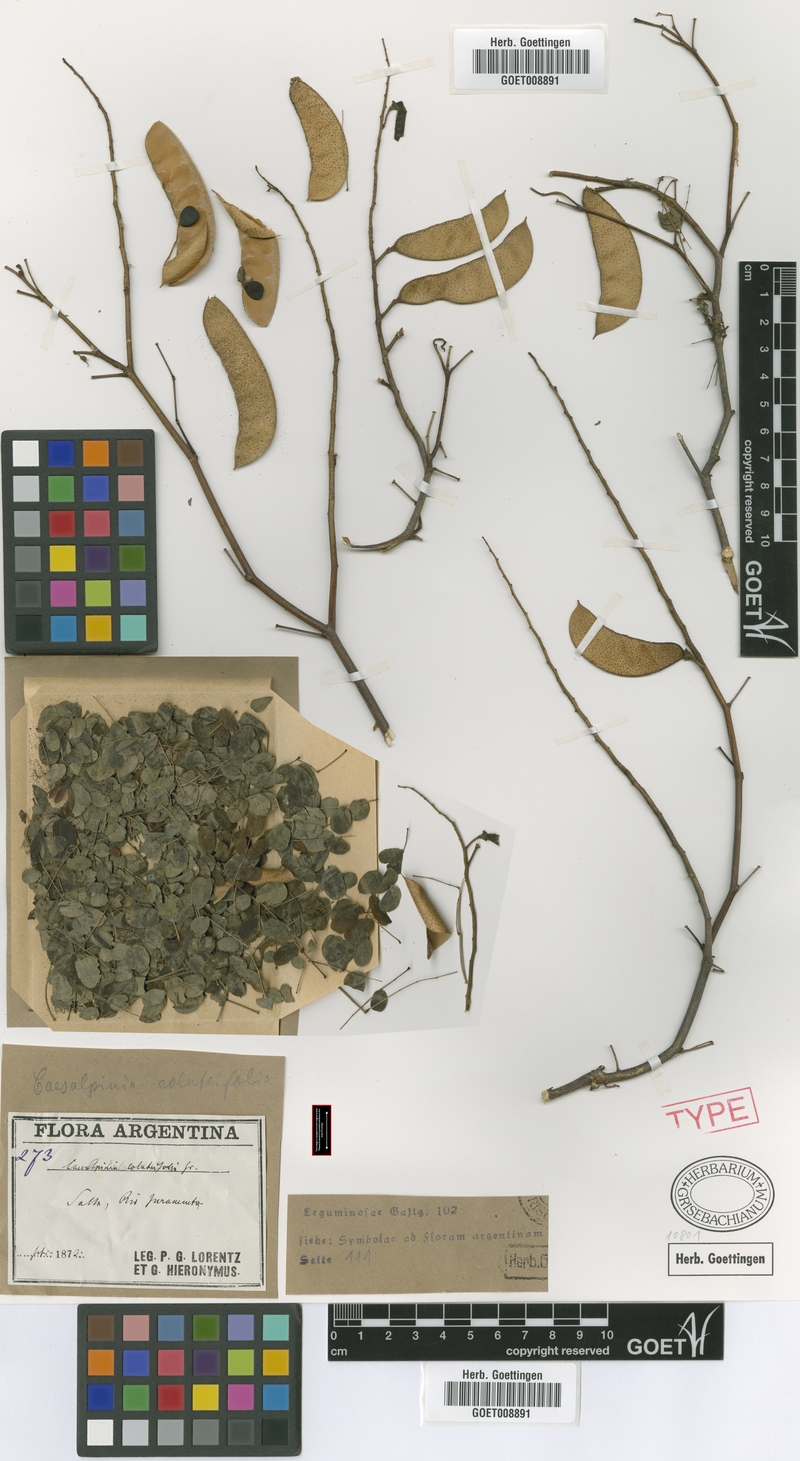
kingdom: Plantae
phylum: Tracheophyta
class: Magnoliopsida
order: Fabales
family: Fabaceae
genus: Erythrostemon
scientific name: Erythrostemon coluteifolius
